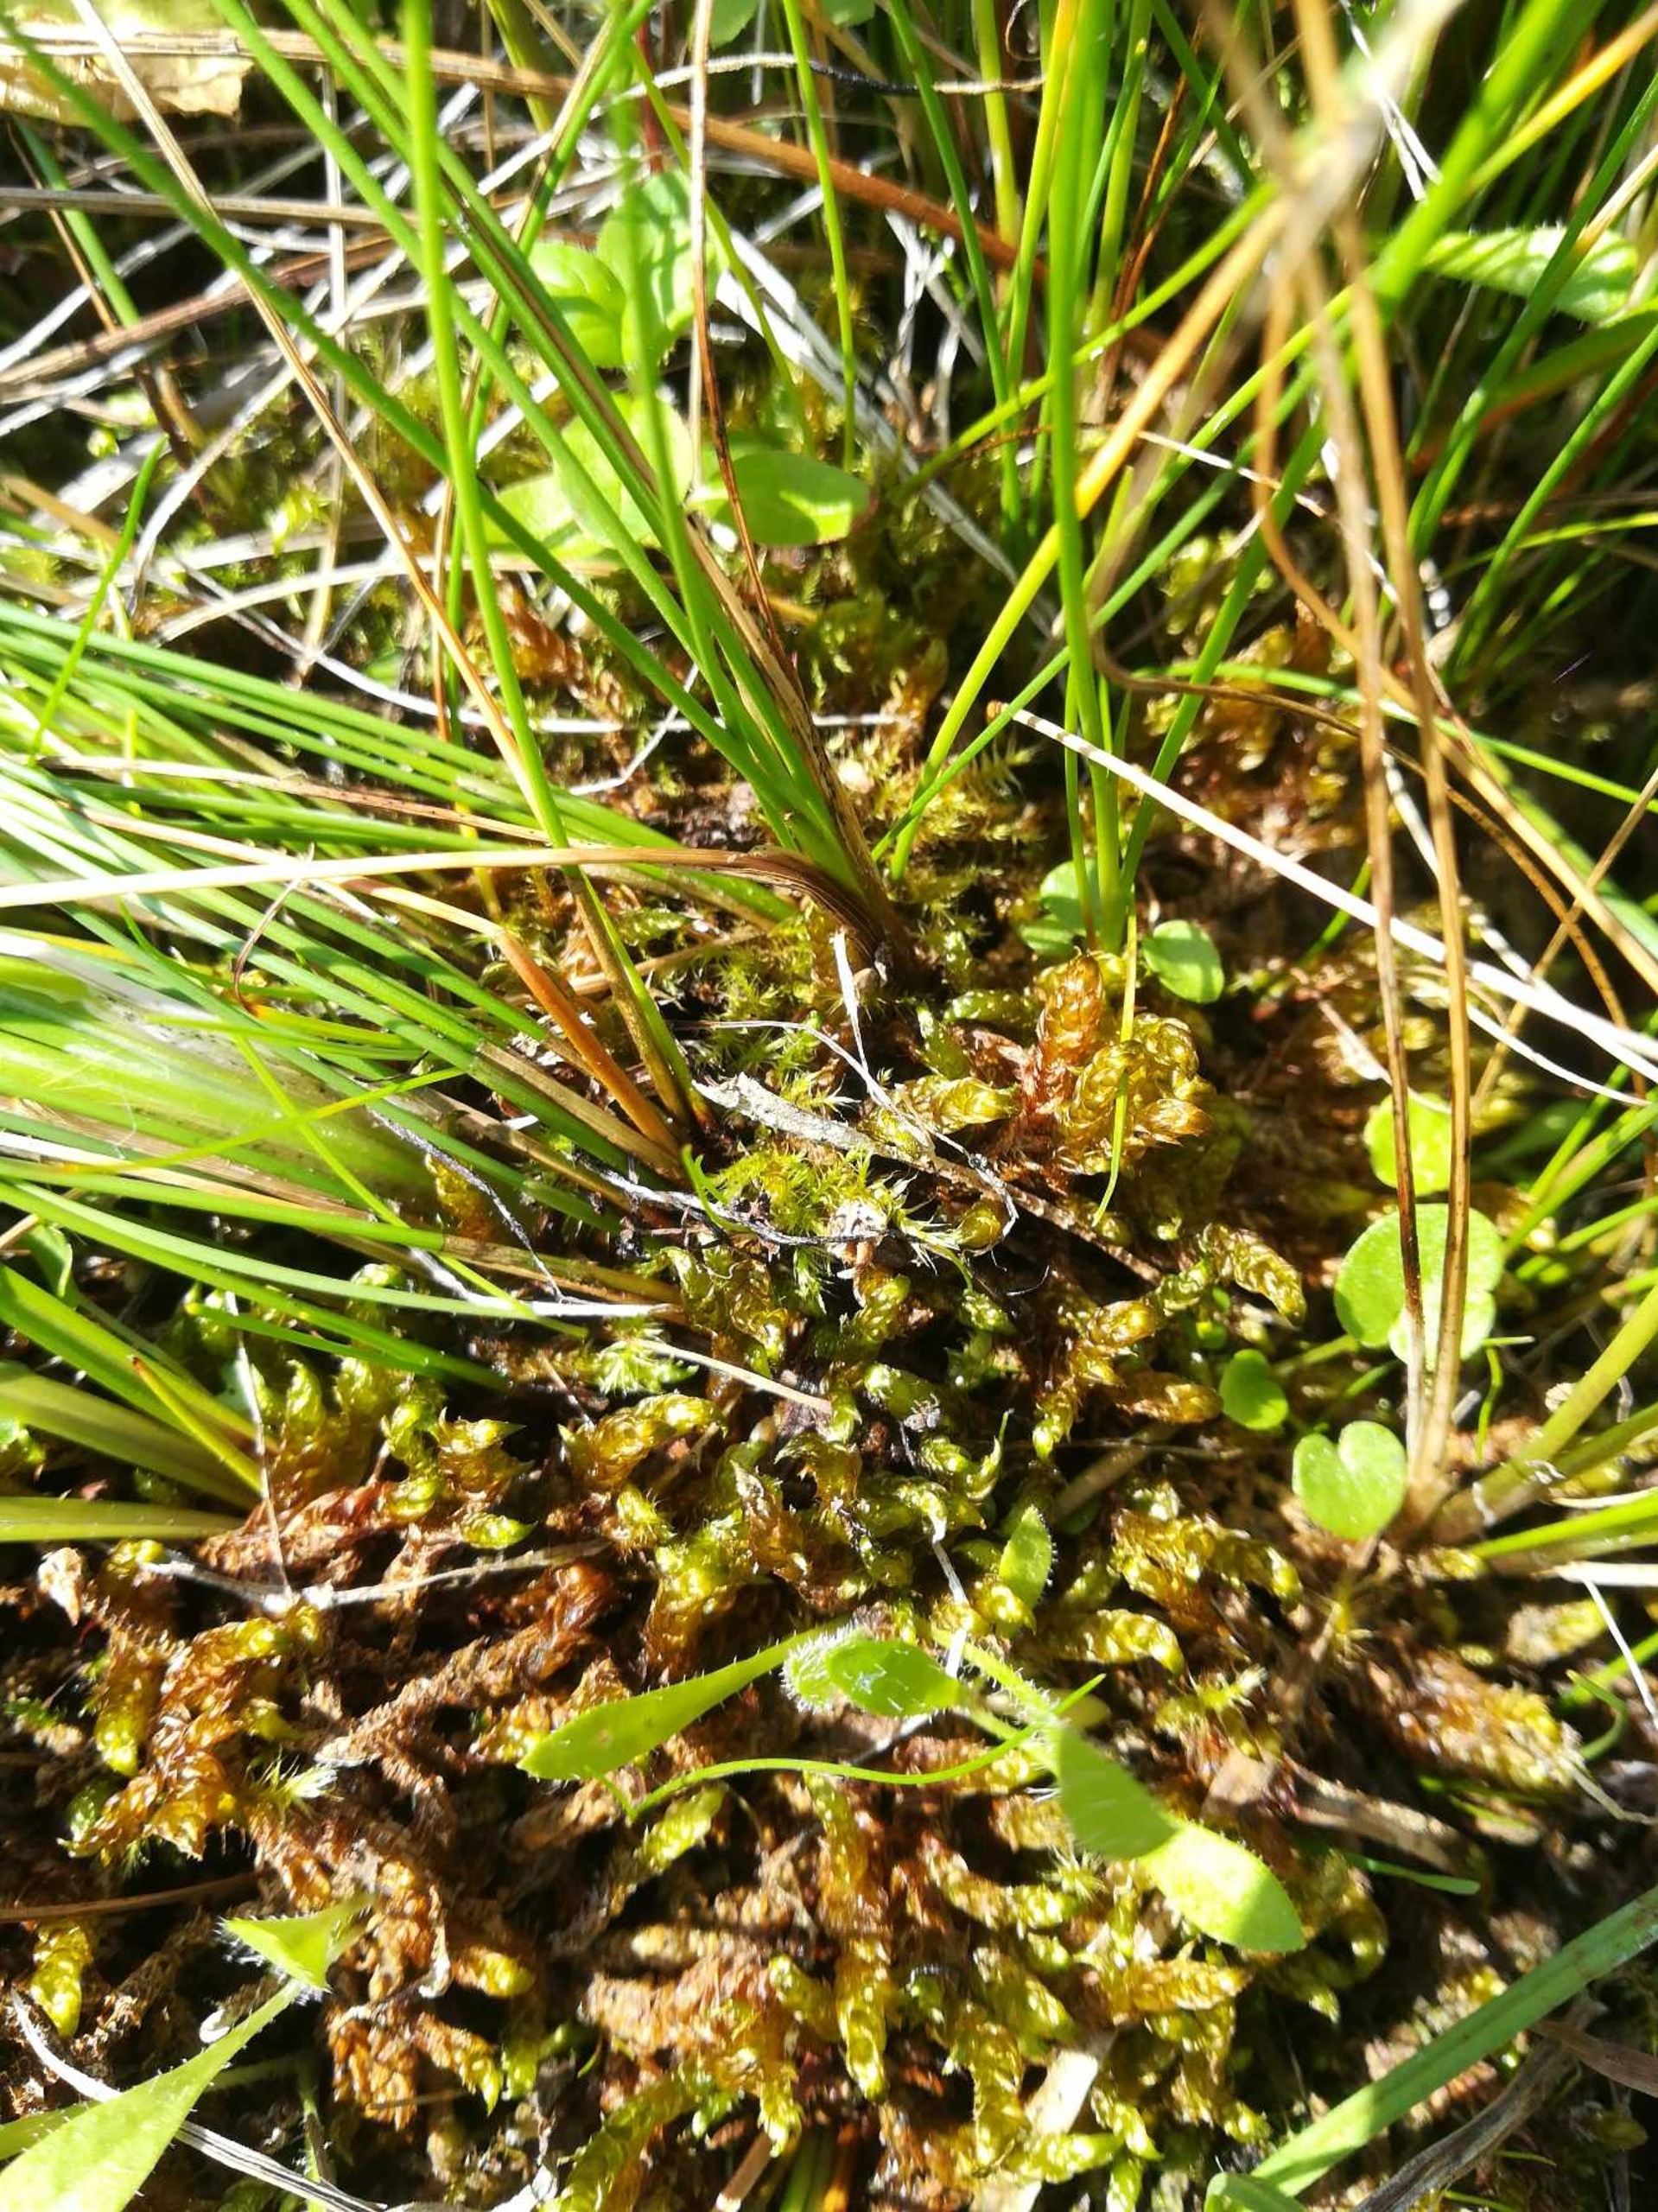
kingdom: Plantae
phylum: Bryophyta
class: Bryopsida
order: Hypnales
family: Scorpidiaceae
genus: Scorpidium
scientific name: Scorpidium scorpioides
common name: Stor skorpionmos
